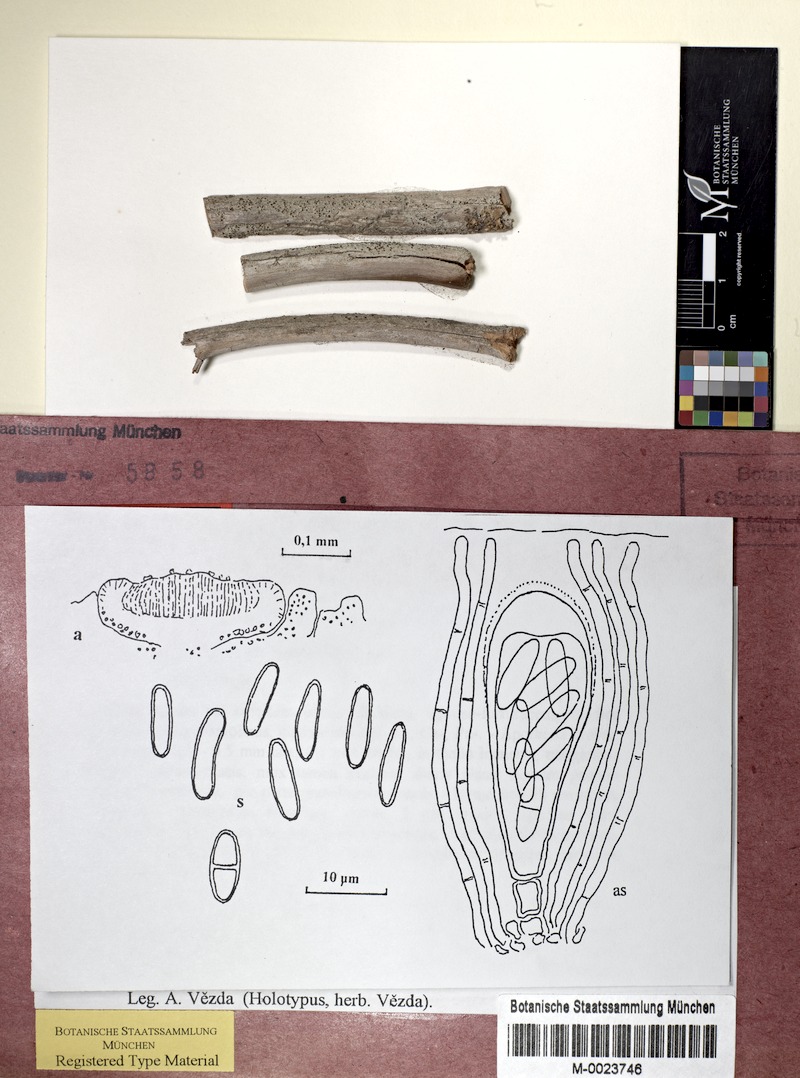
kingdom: Fungi
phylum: Ascomycota
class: Lecanoromycetes
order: Lecanorales
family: Ramalinaceae
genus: Lecania
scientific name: Lecania furfuracea
